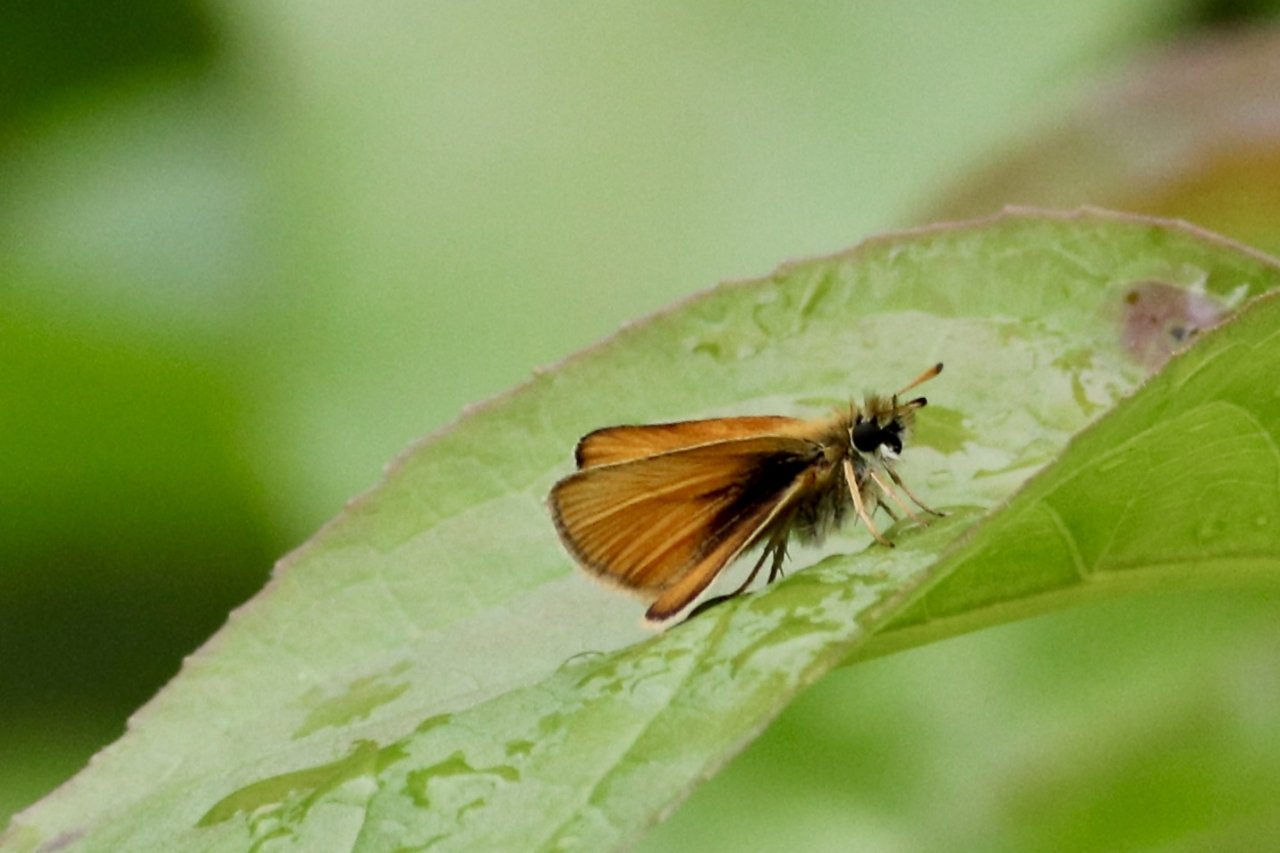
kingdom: Animalia
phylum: Arthropoda
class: Insecta
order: Lepidoptera
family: Hesperiidae
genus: Thymelicus
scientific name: Thymelicus lineola
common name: European Skipper
